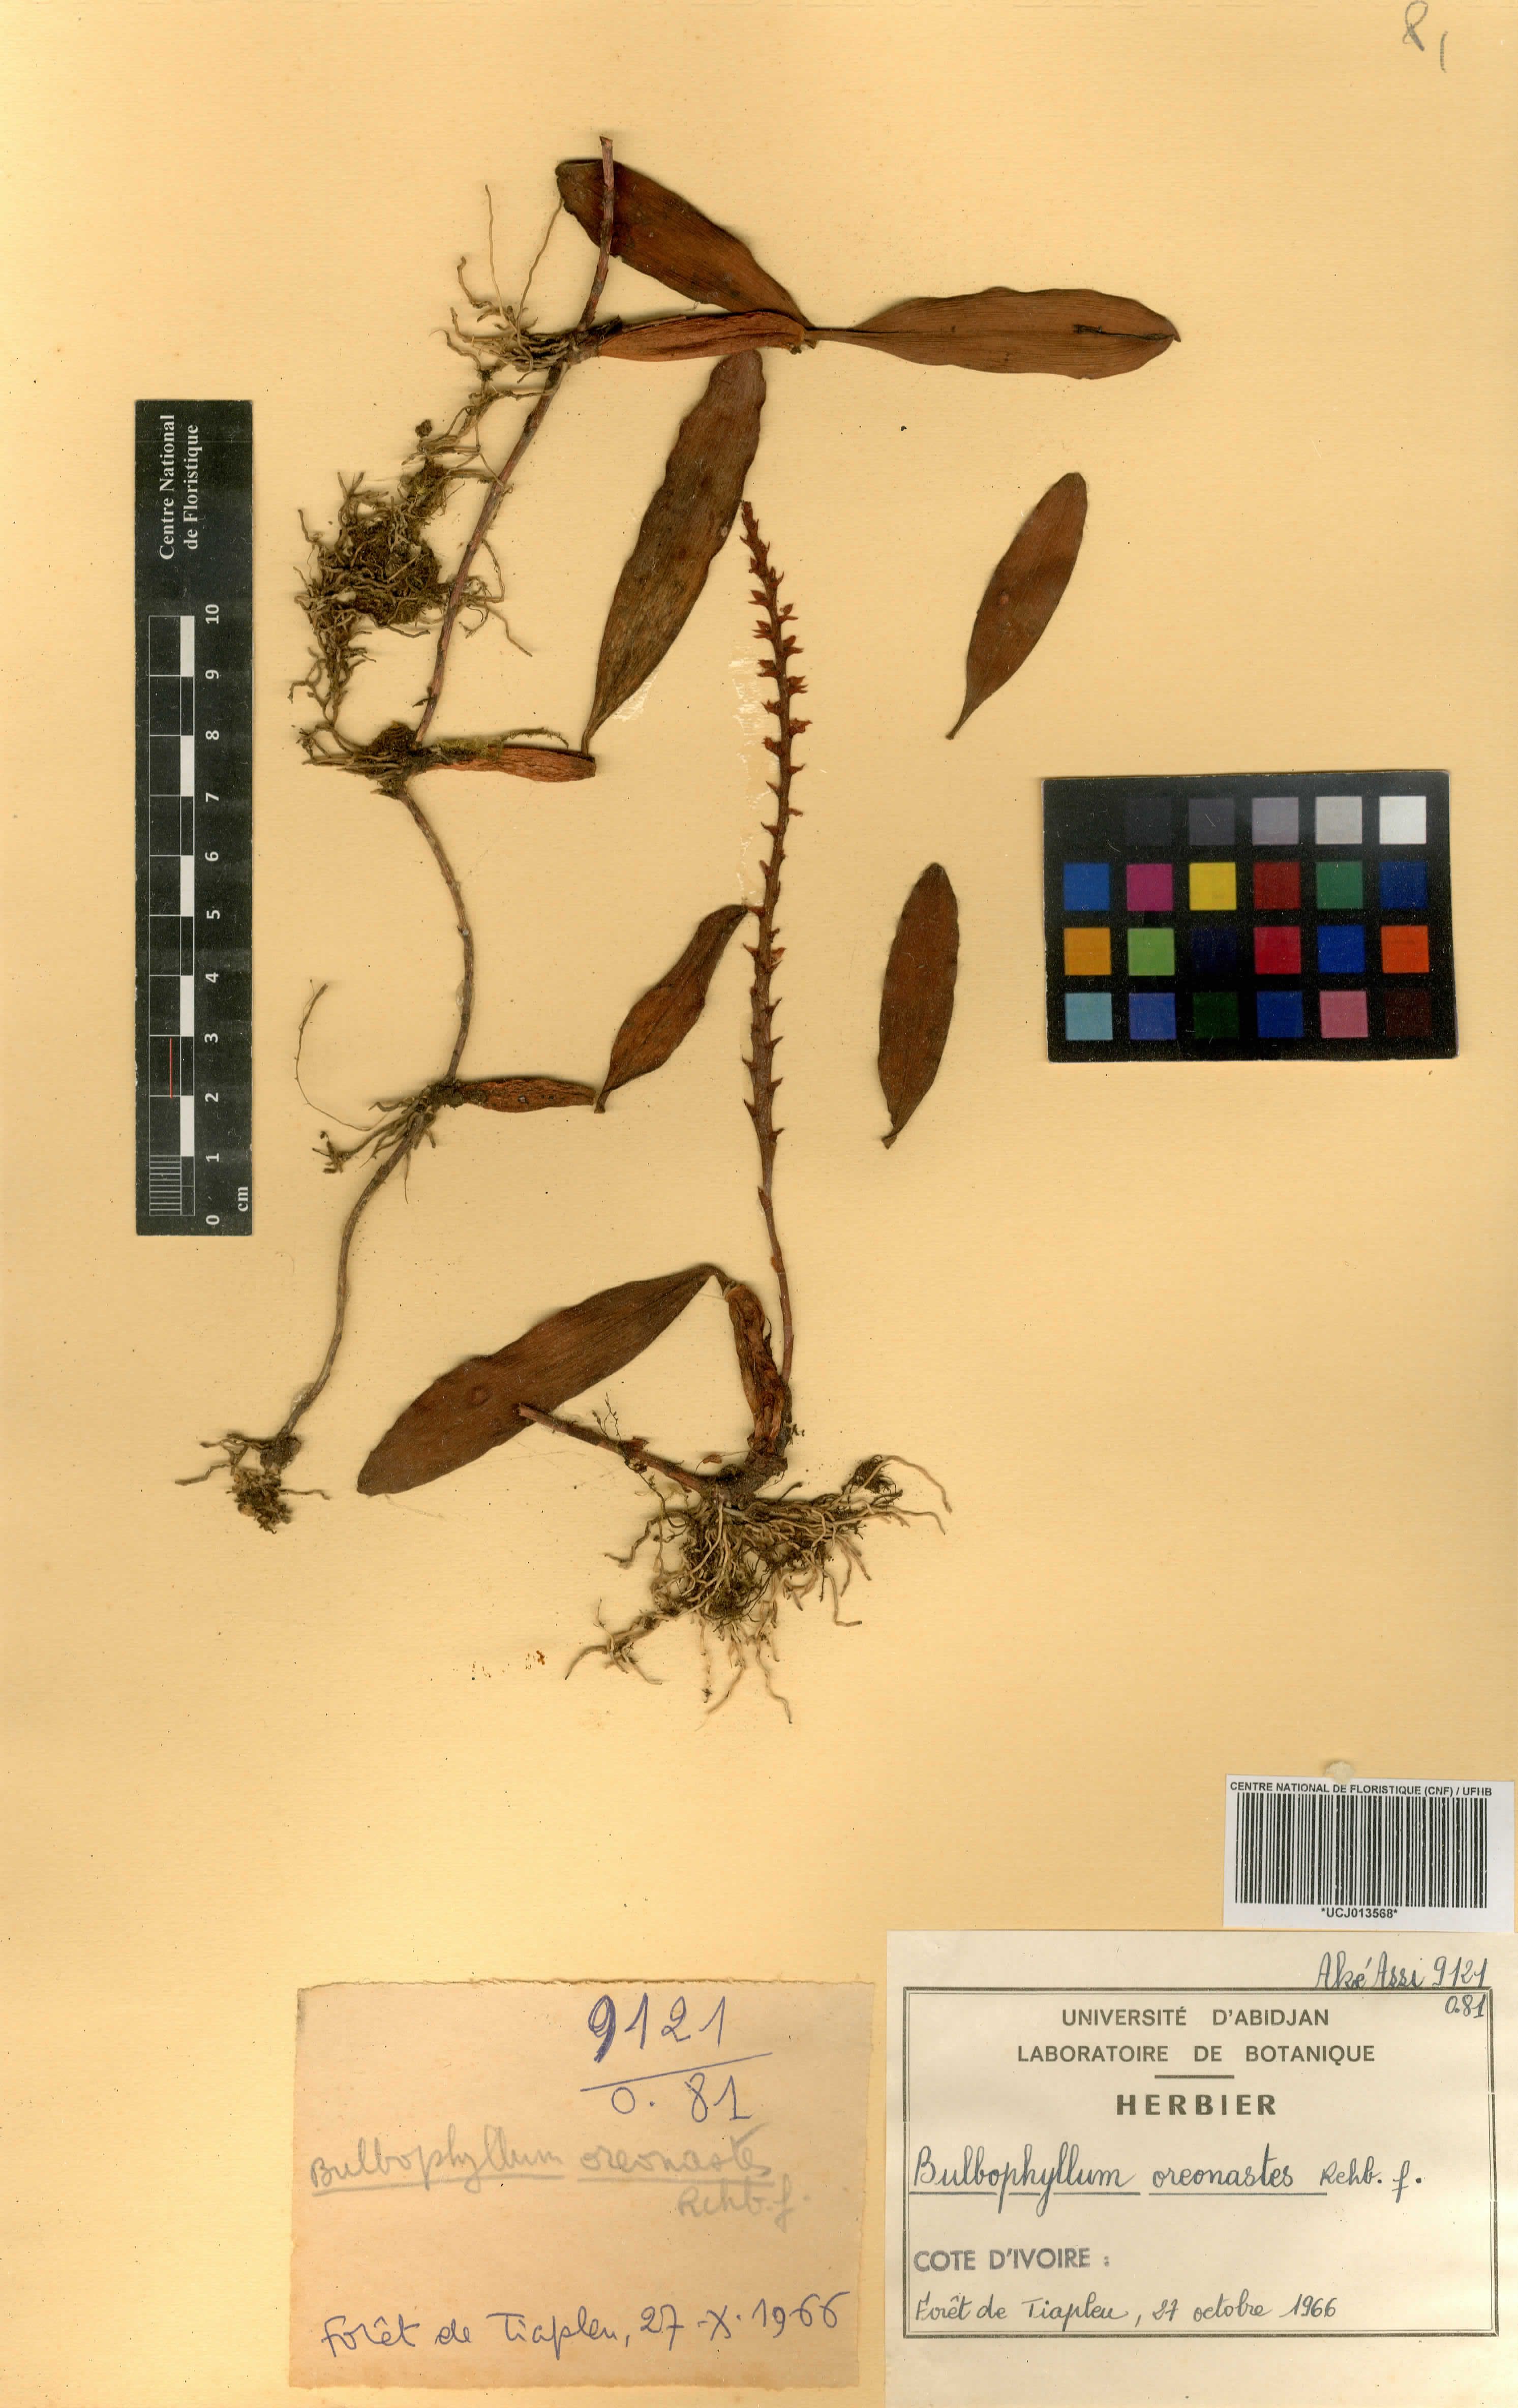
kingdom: Plantae
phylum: Tracheophyta
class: Liliopsida
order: Asparagales
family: Orchidaceae
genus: Bulbophyllum
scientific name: Bulbophyllum oreonastes
